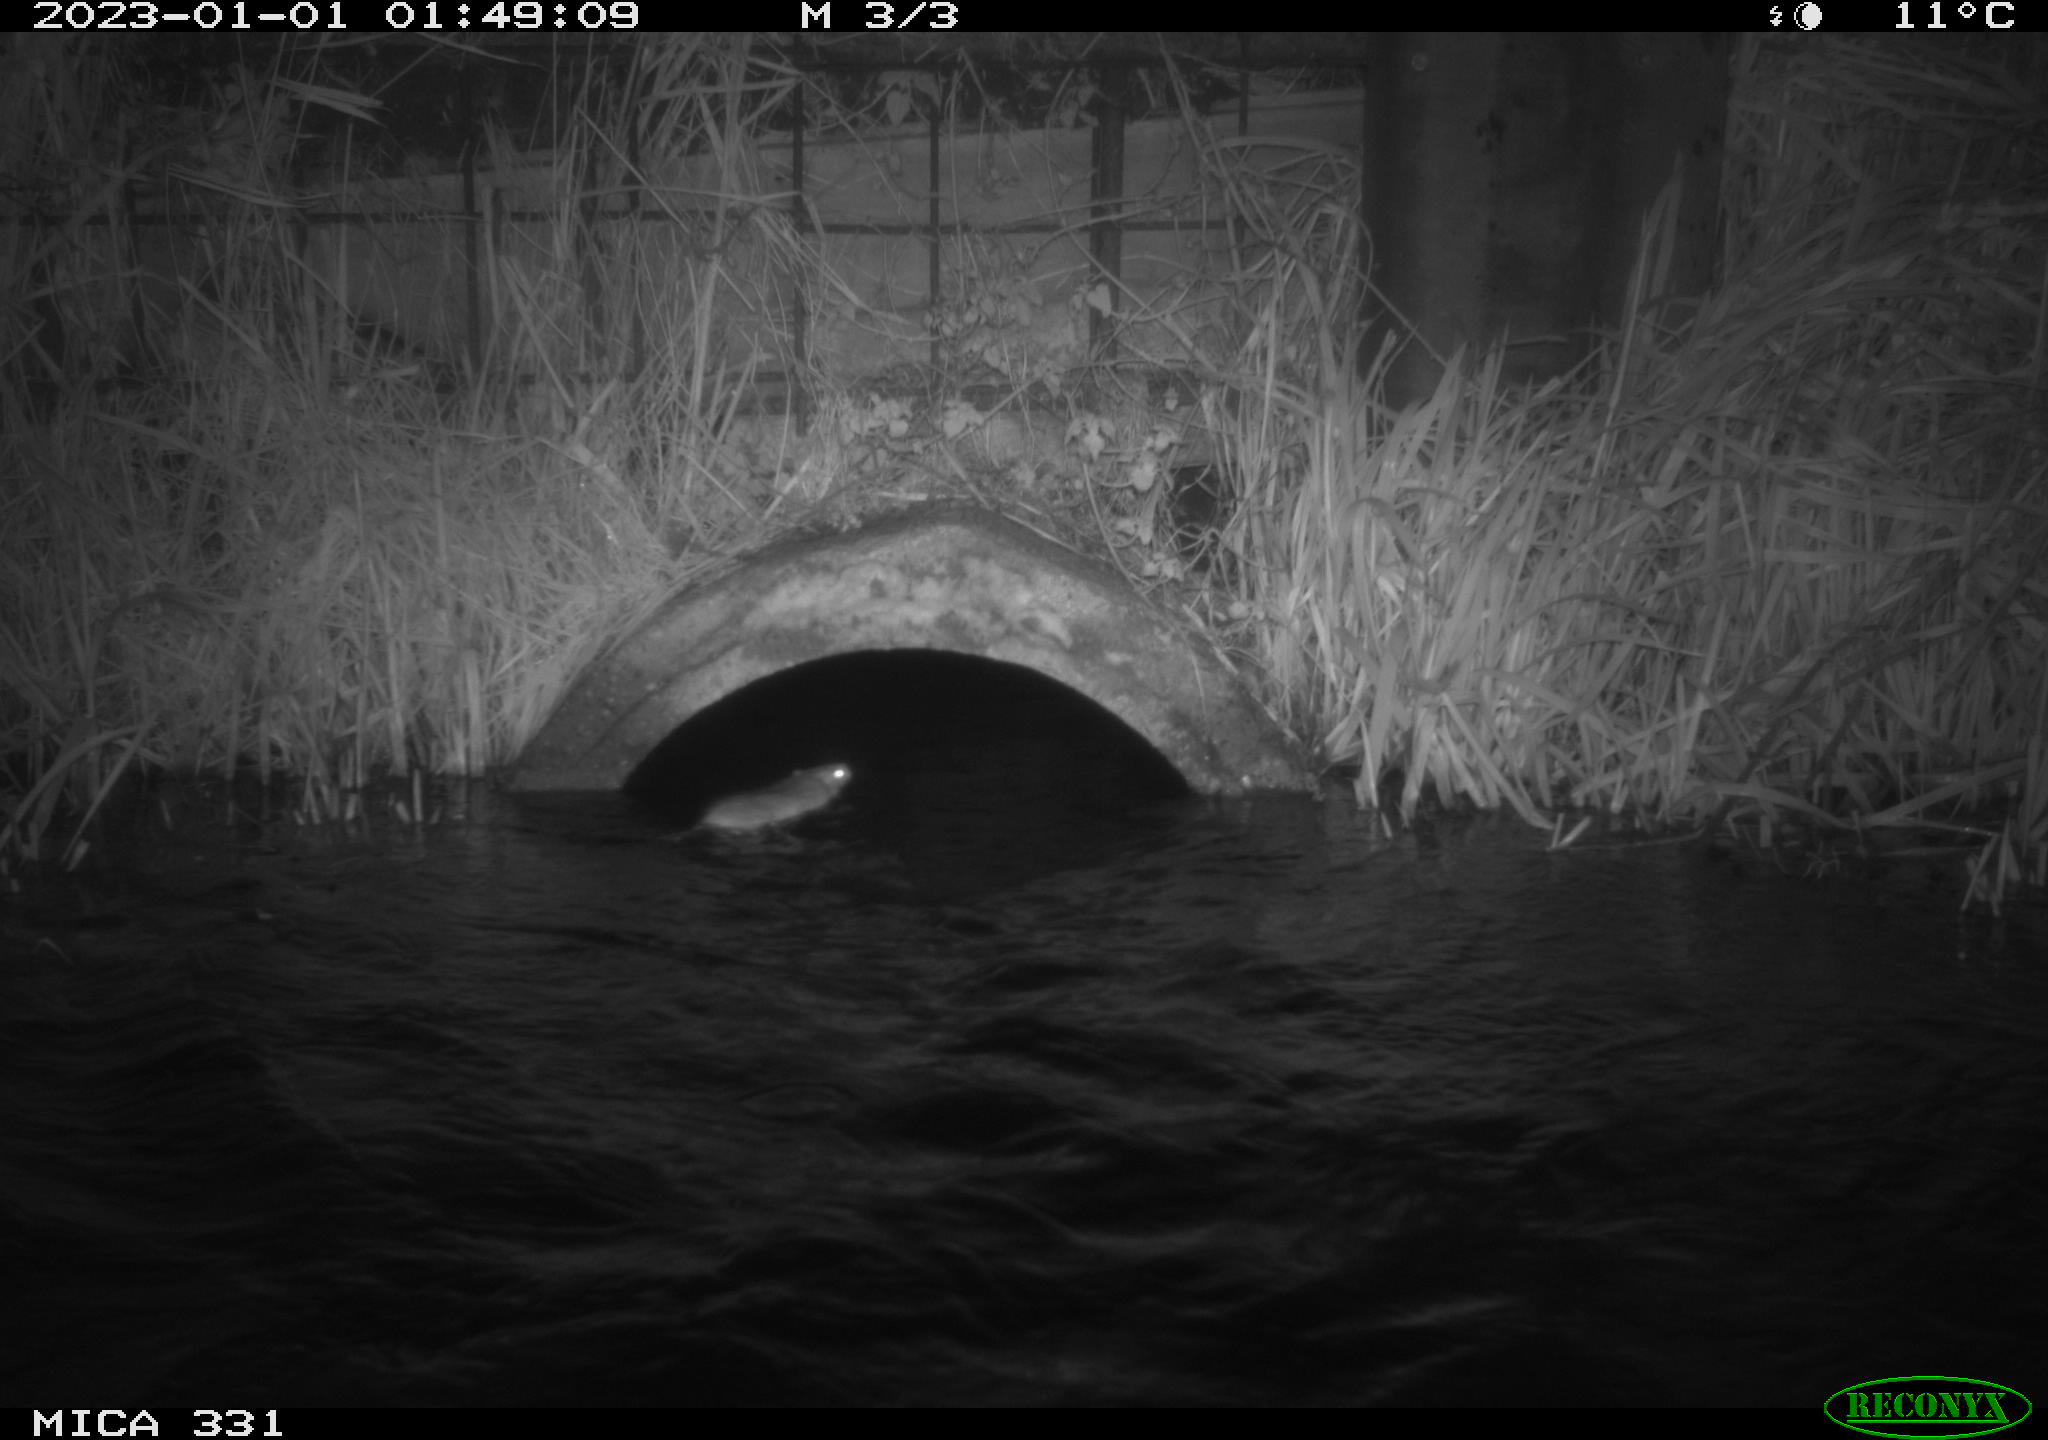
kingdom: Animalia
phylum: Chordata
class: Mammalia
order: Rodentia
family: Muridae
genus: Rattus
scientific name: Rattus norvegicus
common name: Brown rat
